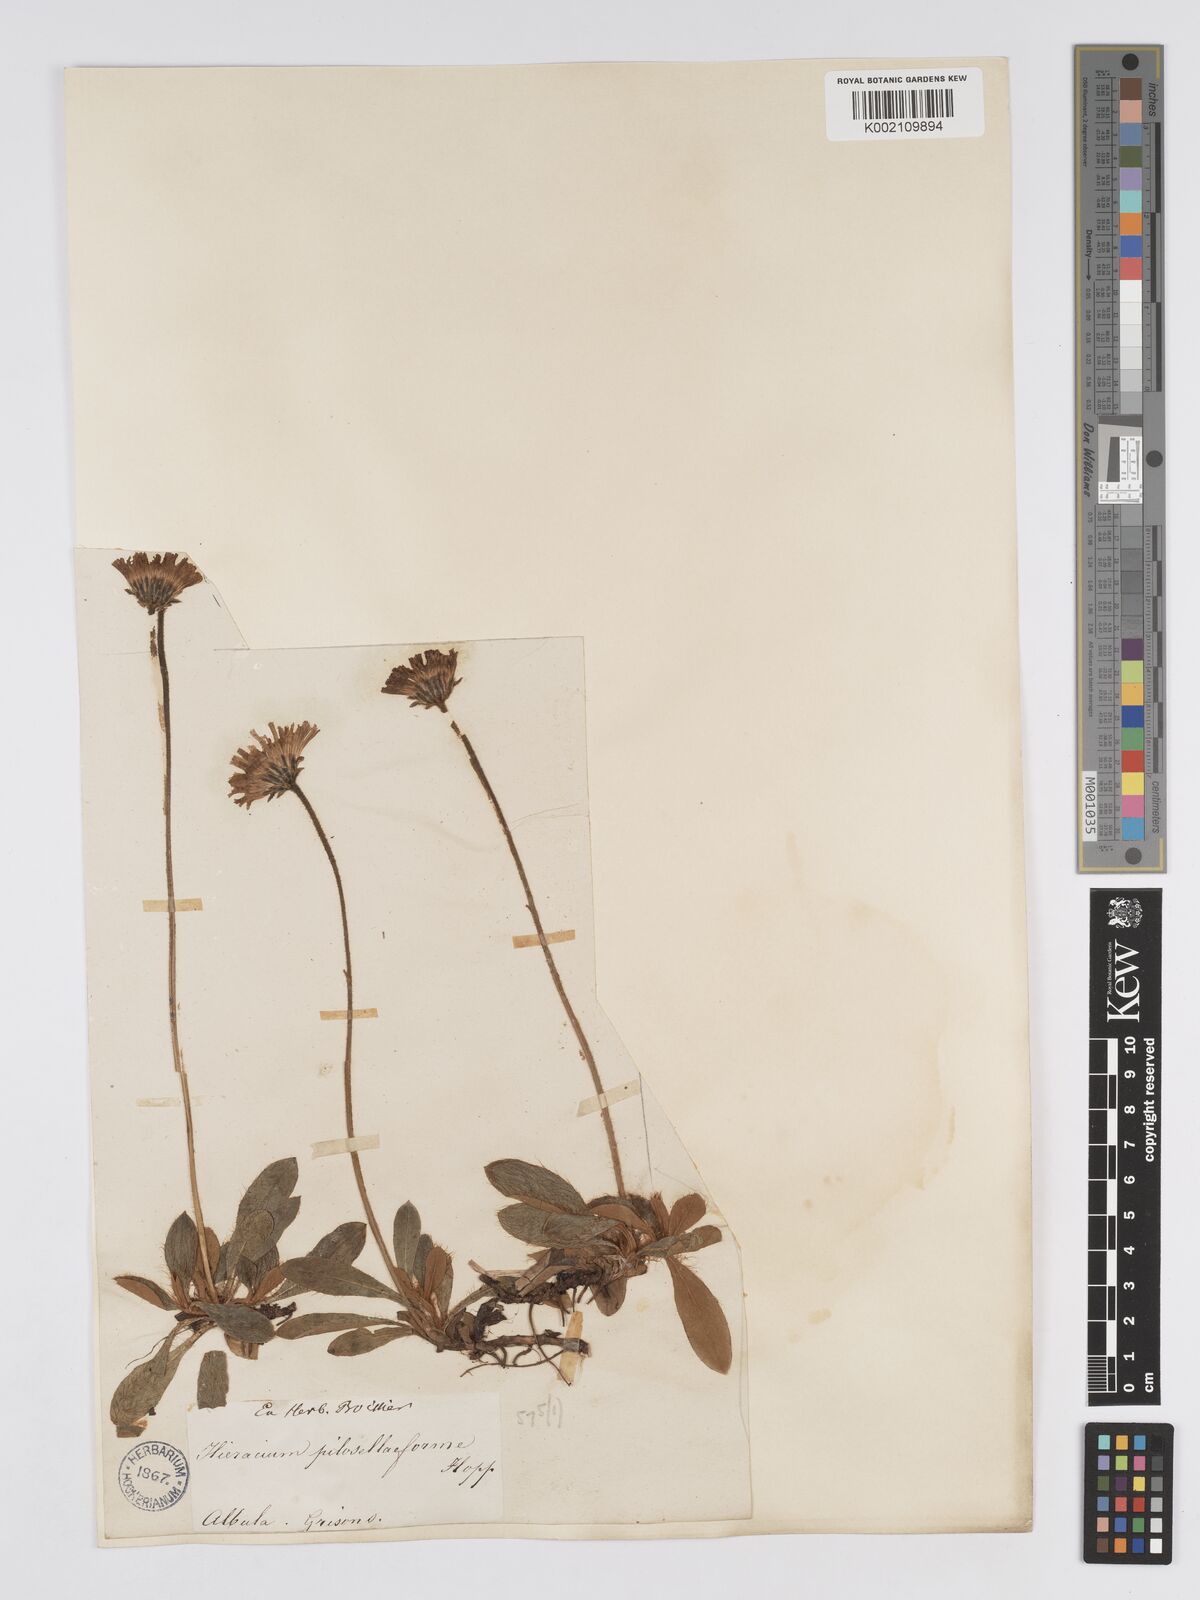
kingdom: Plantae
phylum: Tracheophyta
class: Magnoliopsida
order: Asterales
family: Asteraceae
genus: Pilosella
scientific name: Pilosella hoppeana
